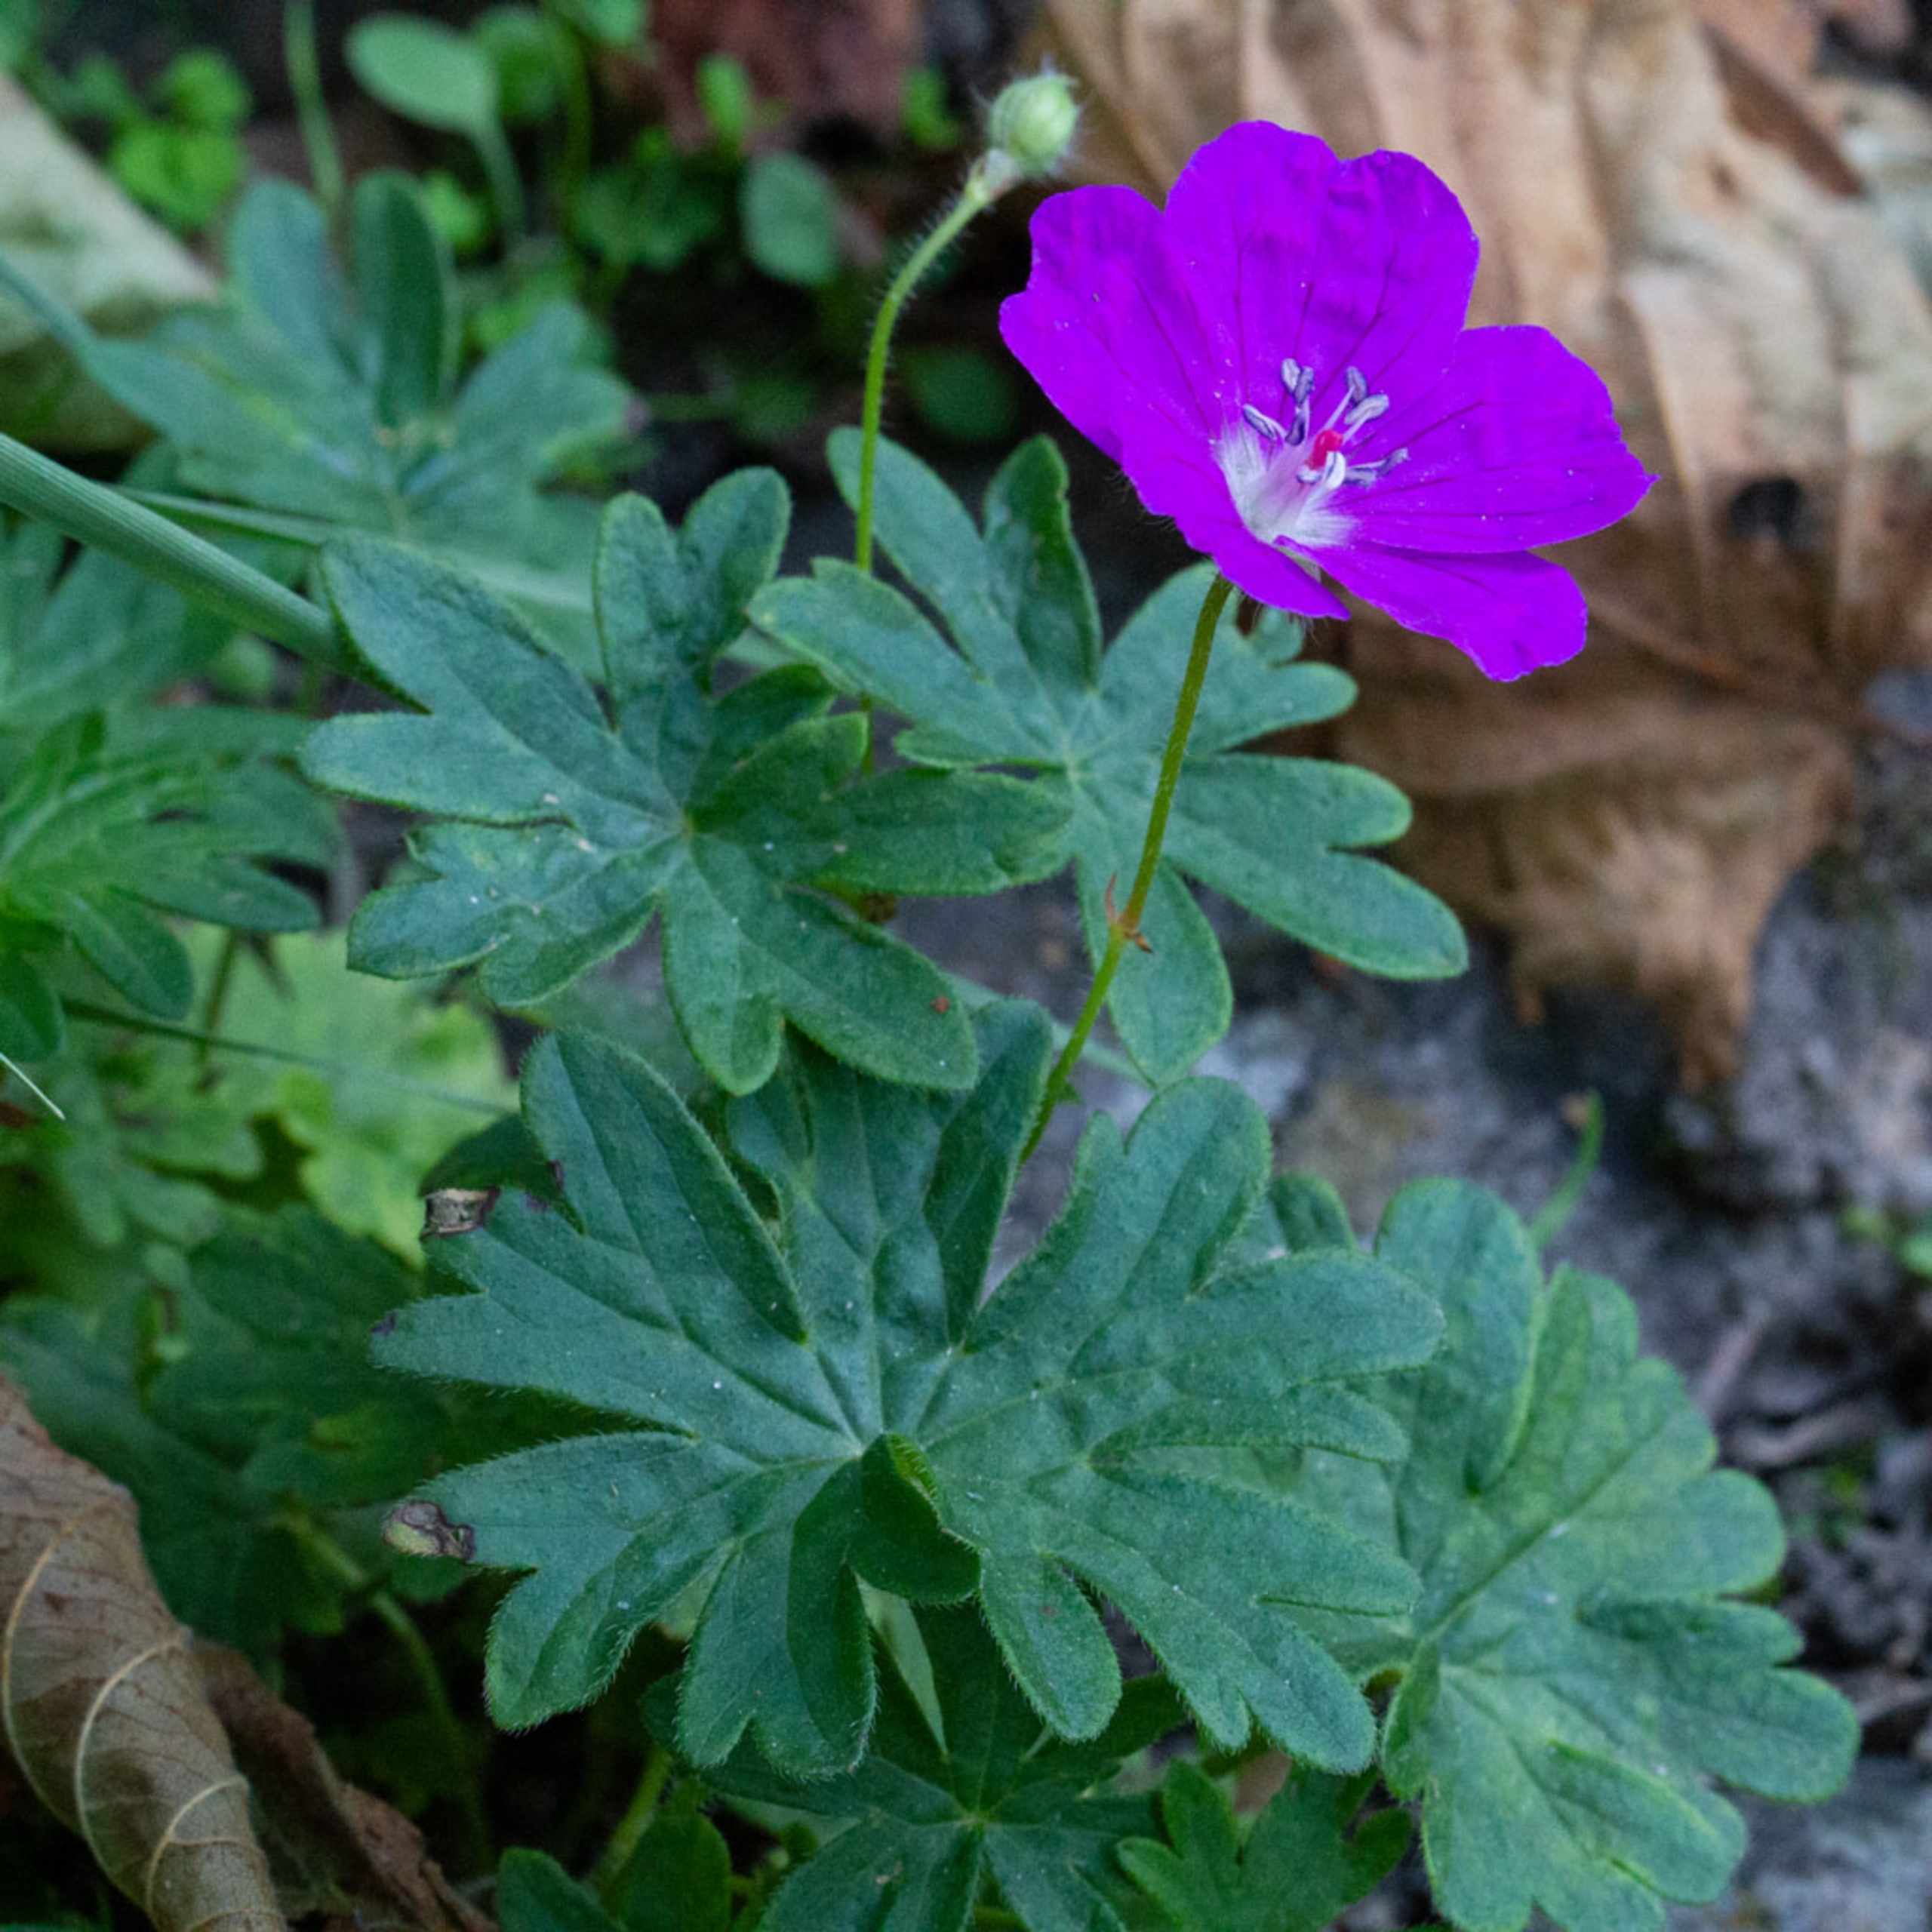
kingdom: Plantae
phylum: Tracheophyta
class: Magnoliopsida
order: Geraniales
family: Geraniaceae
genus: Geranium
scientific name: Geranium sanguineum
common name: Blodrød storkenæb
